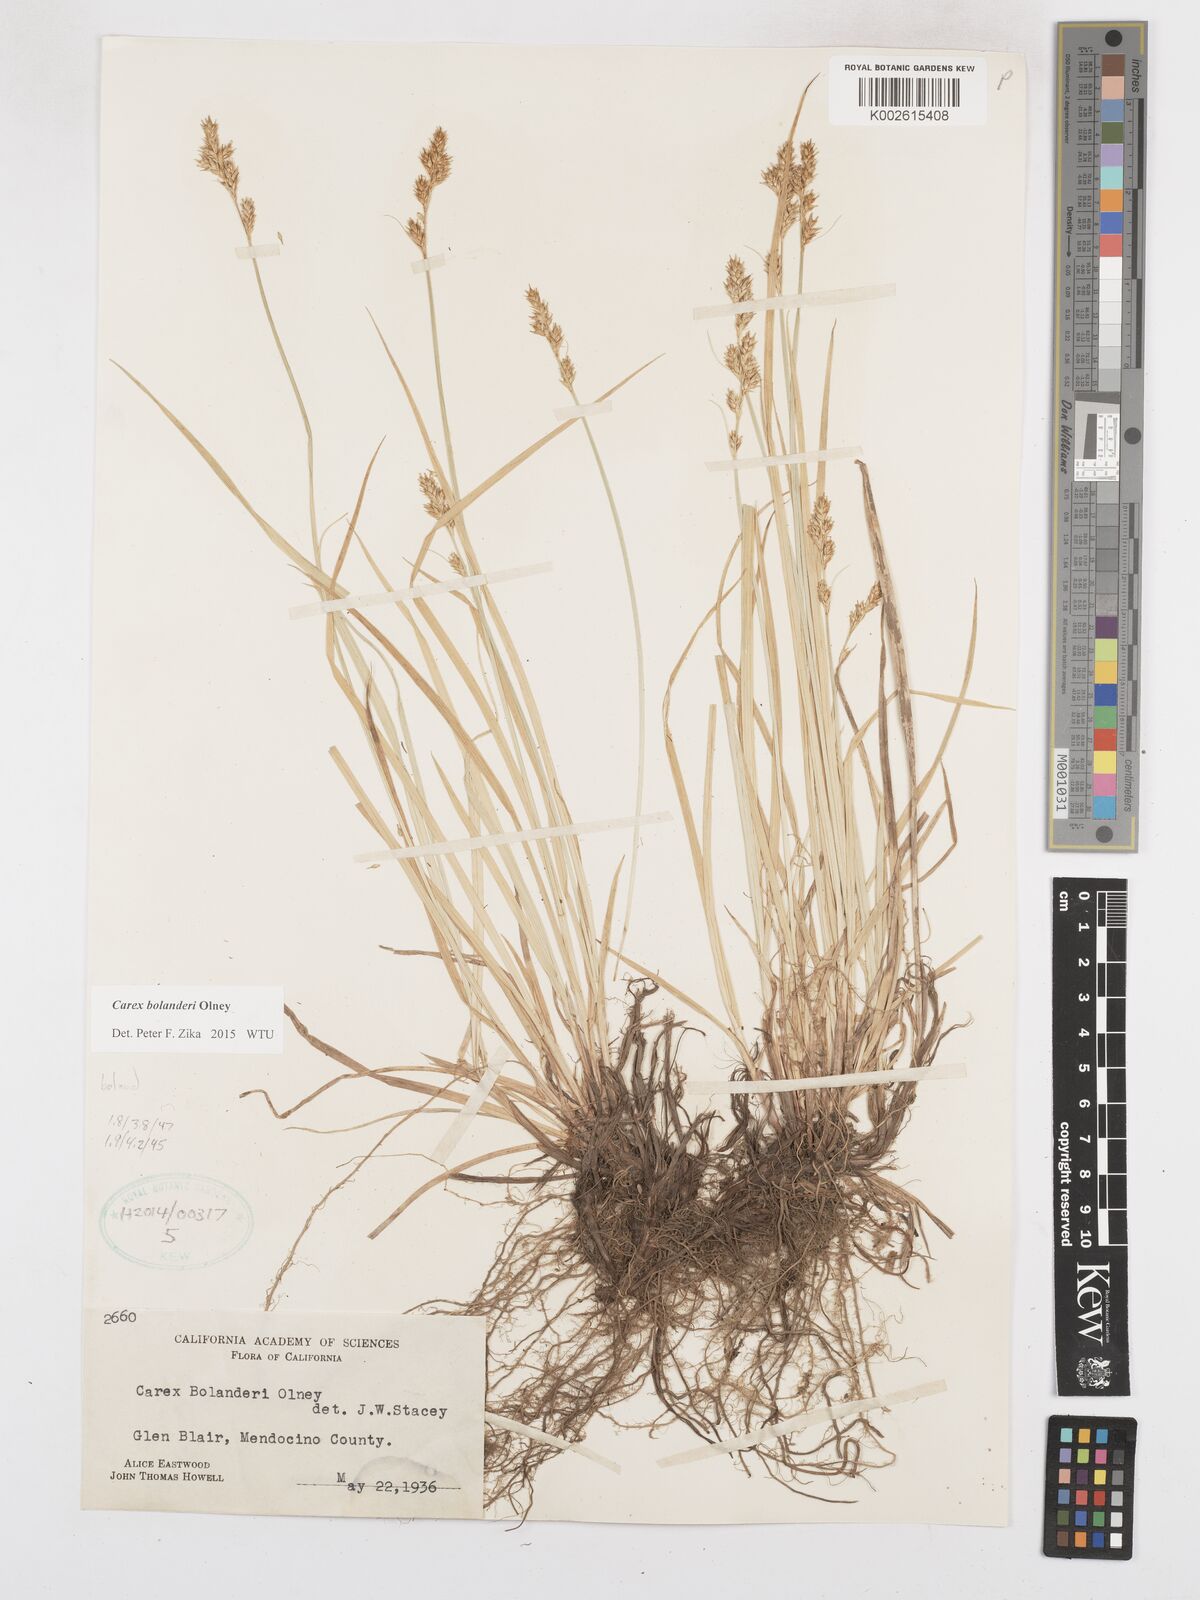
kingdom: Plantae
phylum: Tracheophyta
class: Liliopsida
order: Poales
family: Cyperaceae
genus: Carex
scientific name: Carex bolanderi
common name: Bolander's sedge
